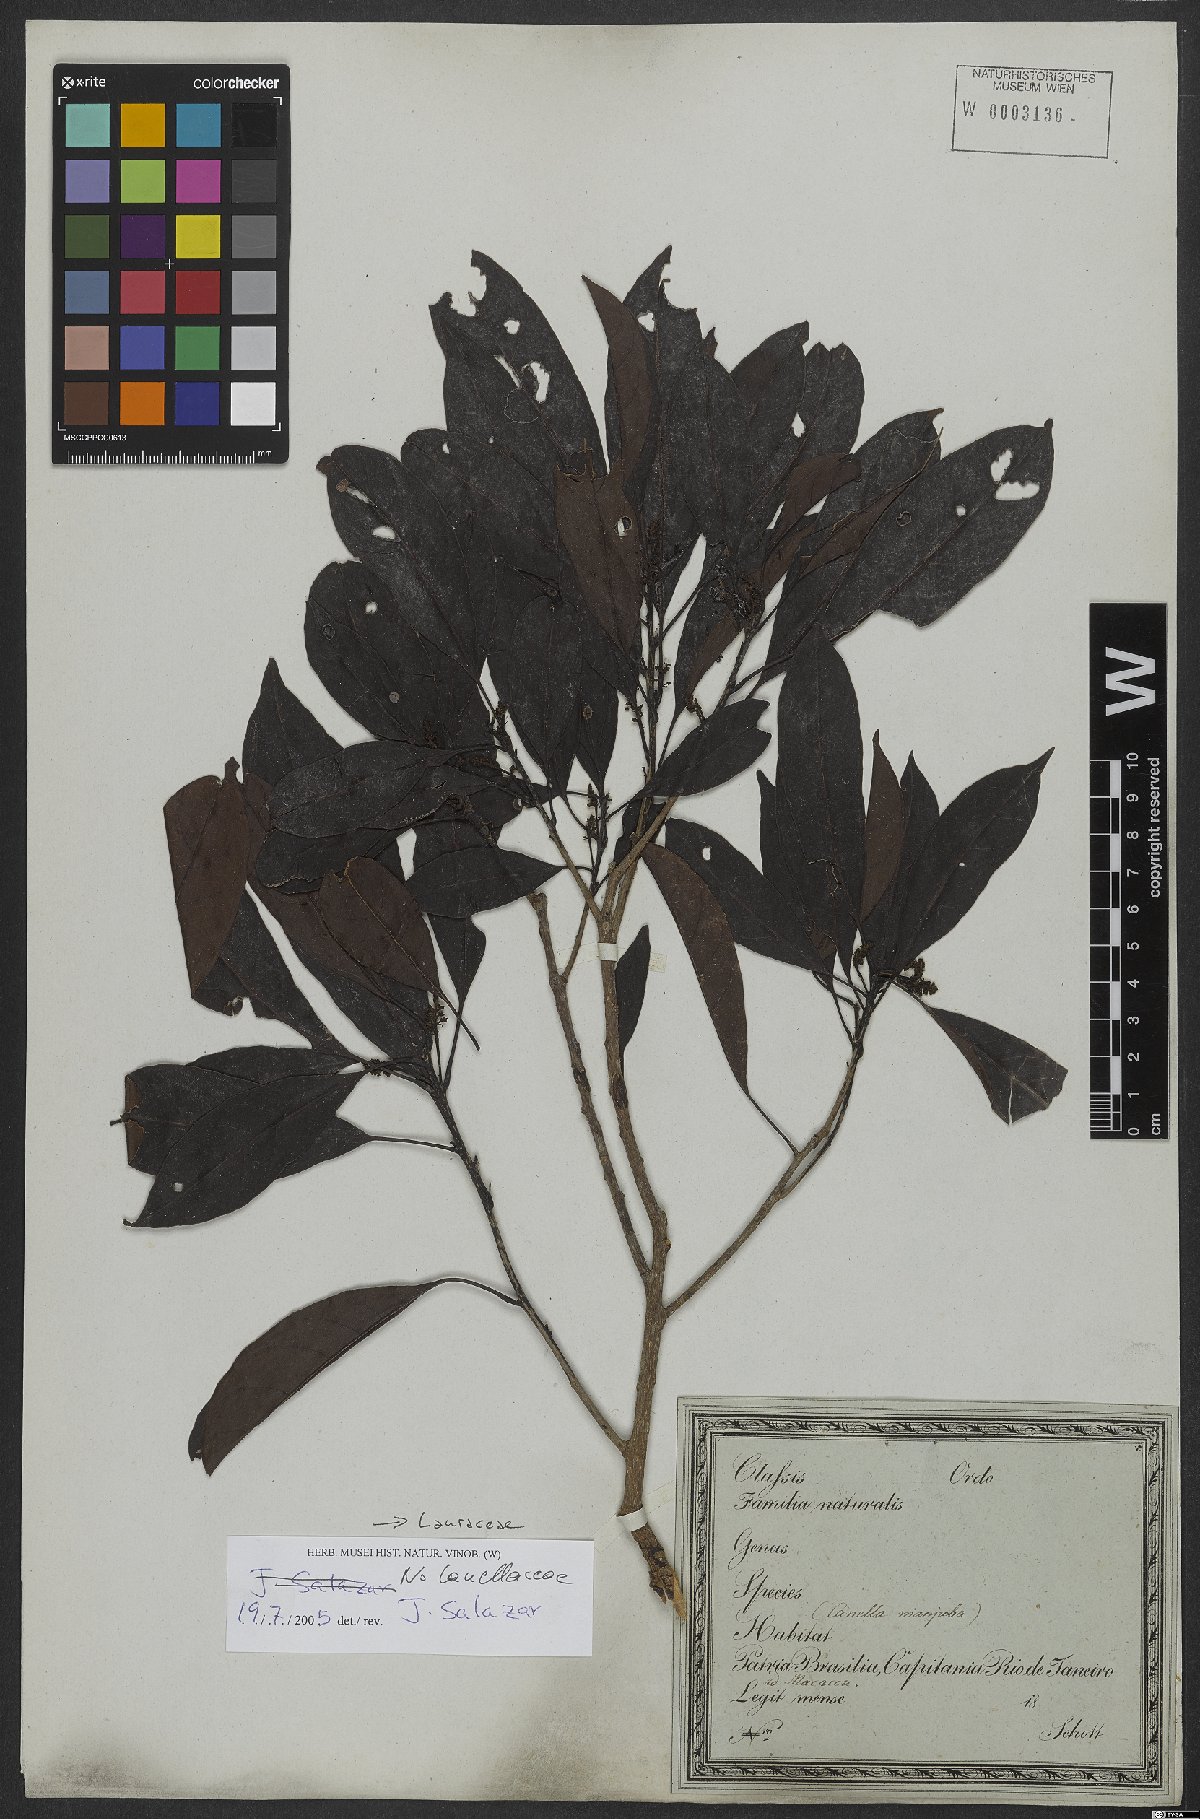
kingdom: Plantae
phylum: Tracheophyta
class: Magnoliopsida
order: Laurales
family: Lauraceae
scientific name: Lauraceae
